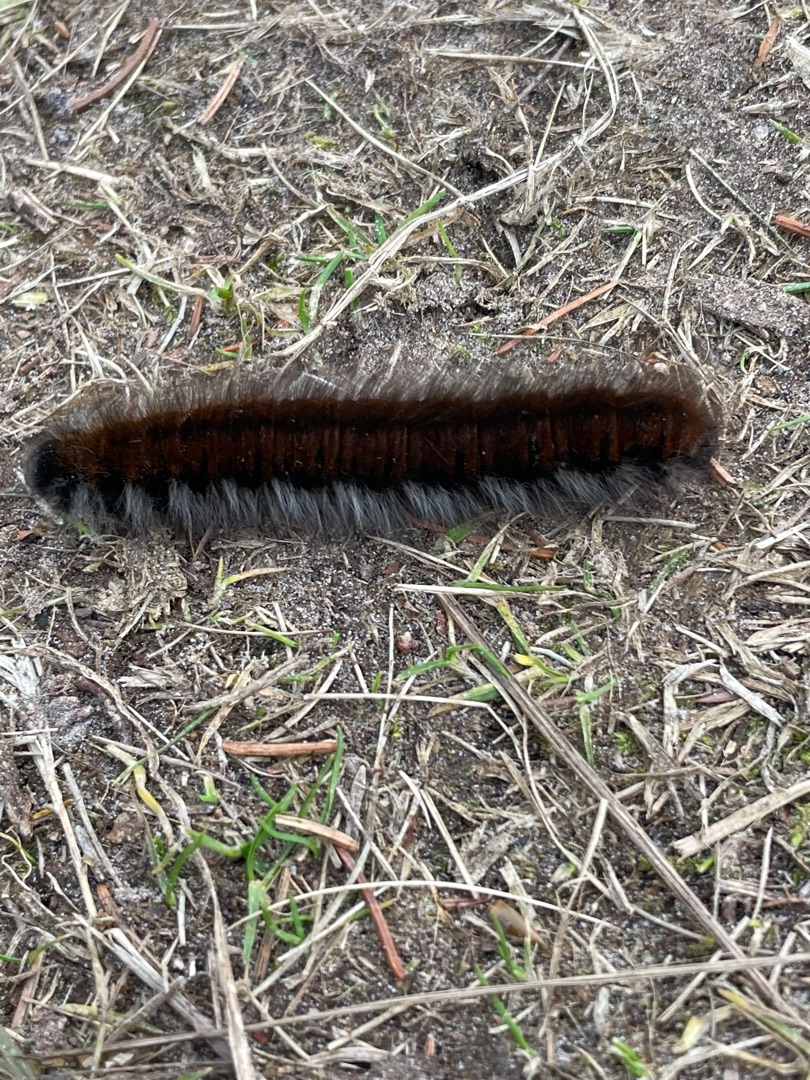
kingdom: Animalia
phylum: Arthropoda
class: Insecta
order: Lepidoptera
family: Lasiocampidae
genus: Macrothylacia
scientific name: Macrothylacia rubi
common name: Brombærspinder
